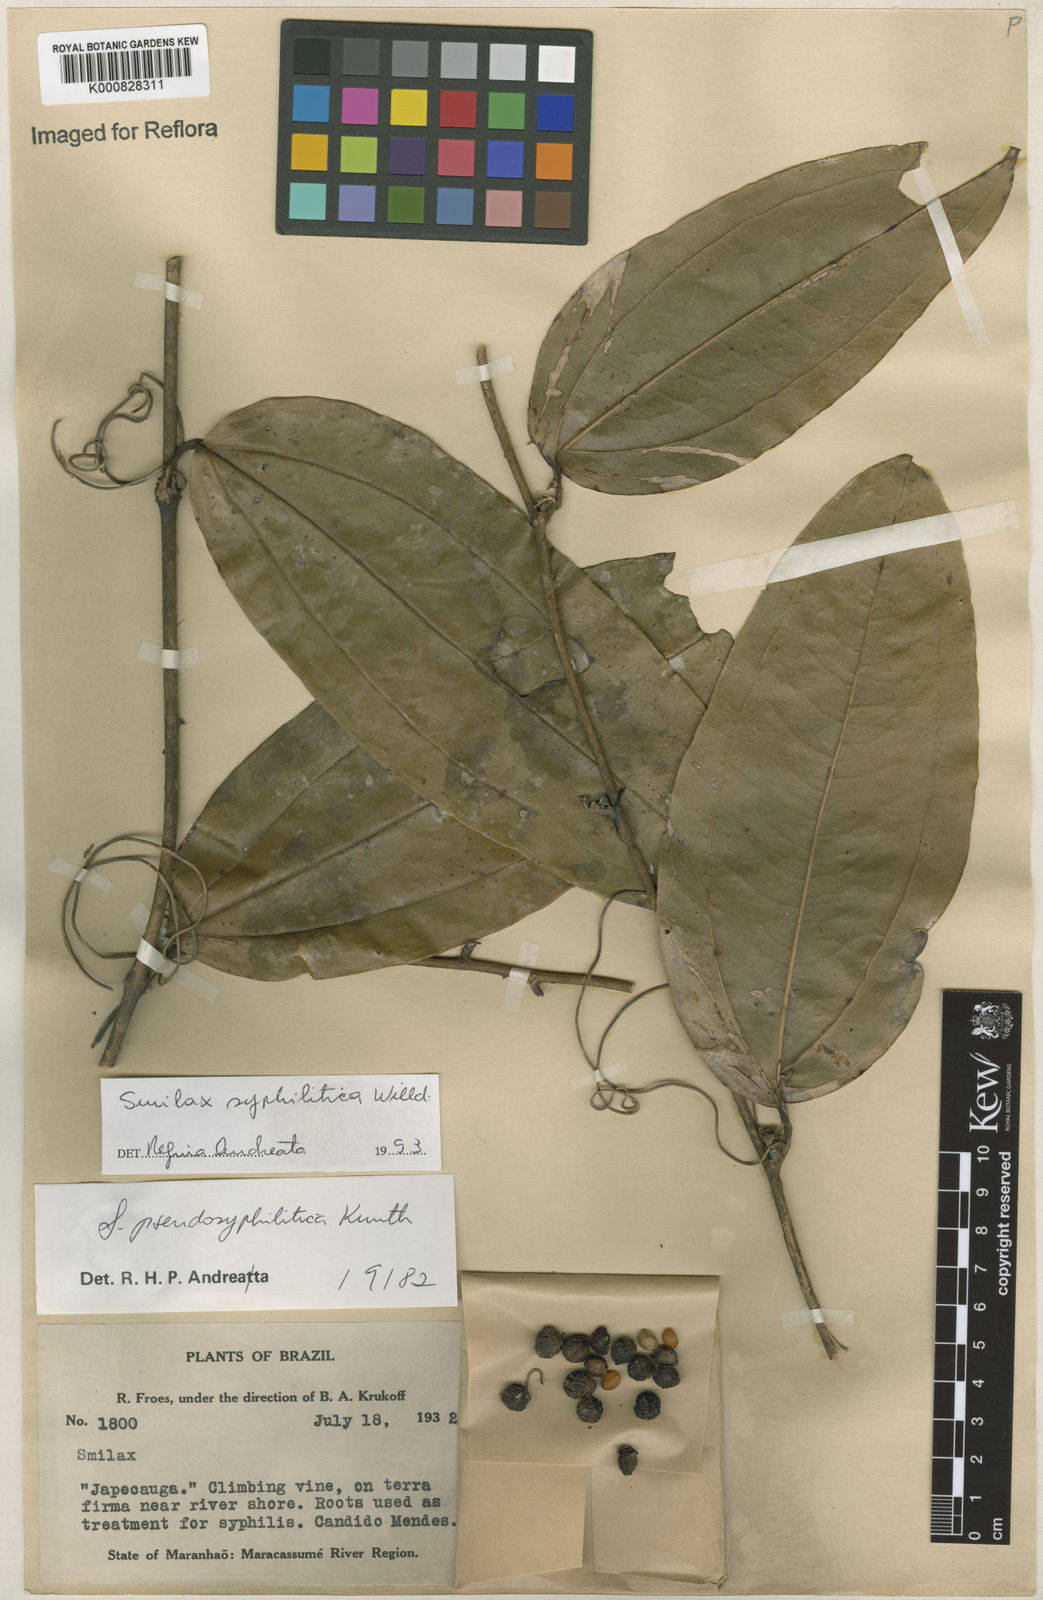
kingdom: Plantae
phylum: Tracheophyta
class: Liliopsida
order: Liliales
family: Smilacaceae
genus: Smilax
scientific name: Smilax siphilitica
